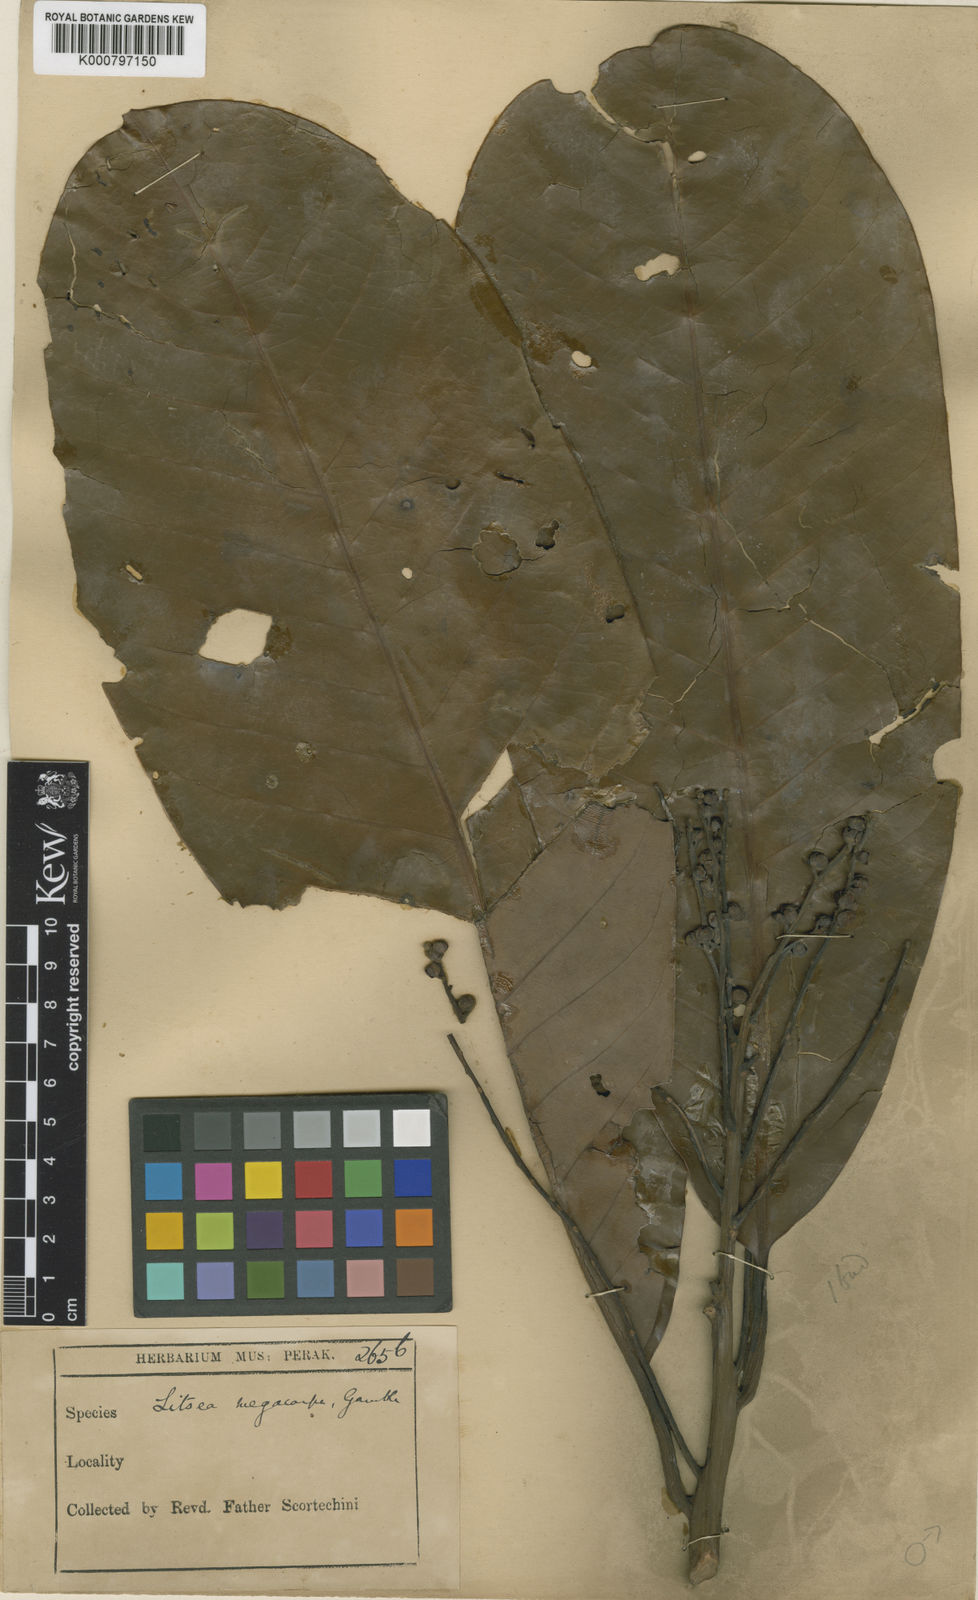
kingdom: Plantae
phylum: Tracheophyta
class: Magnoliopsida
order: Laurales
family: Lauraceae
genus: Litsea
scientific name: Litsea costalis
